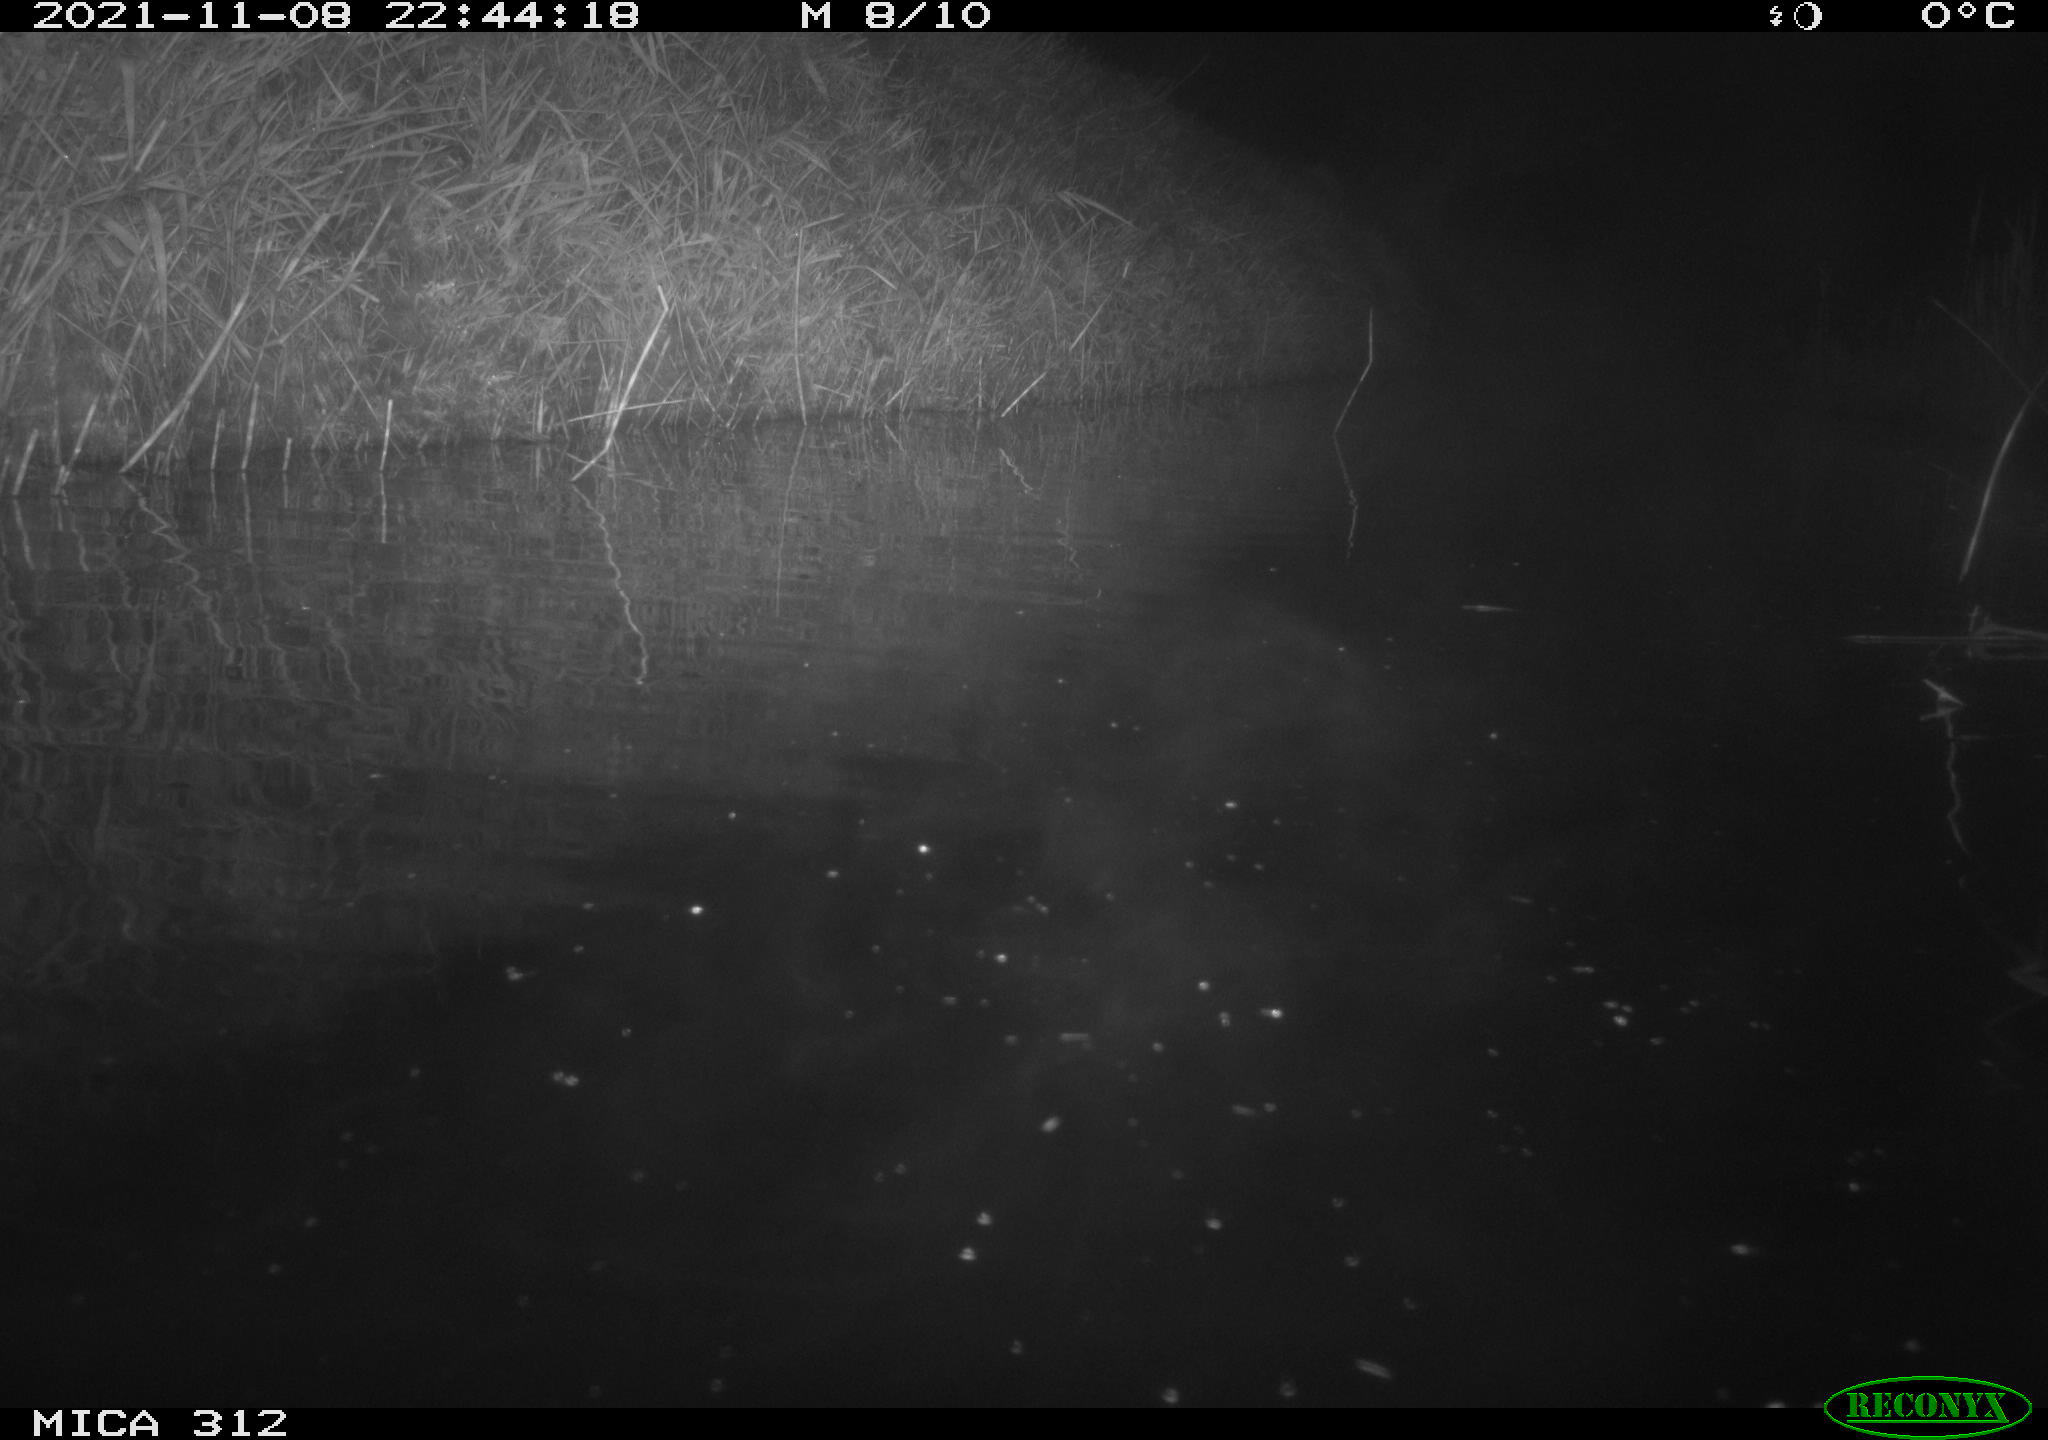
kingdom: Animalia
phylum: Chordata
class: Mammalia
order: Rodentia
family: Muridae
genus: Rattus
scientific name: Rattus norvegicus
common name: Brown rat
